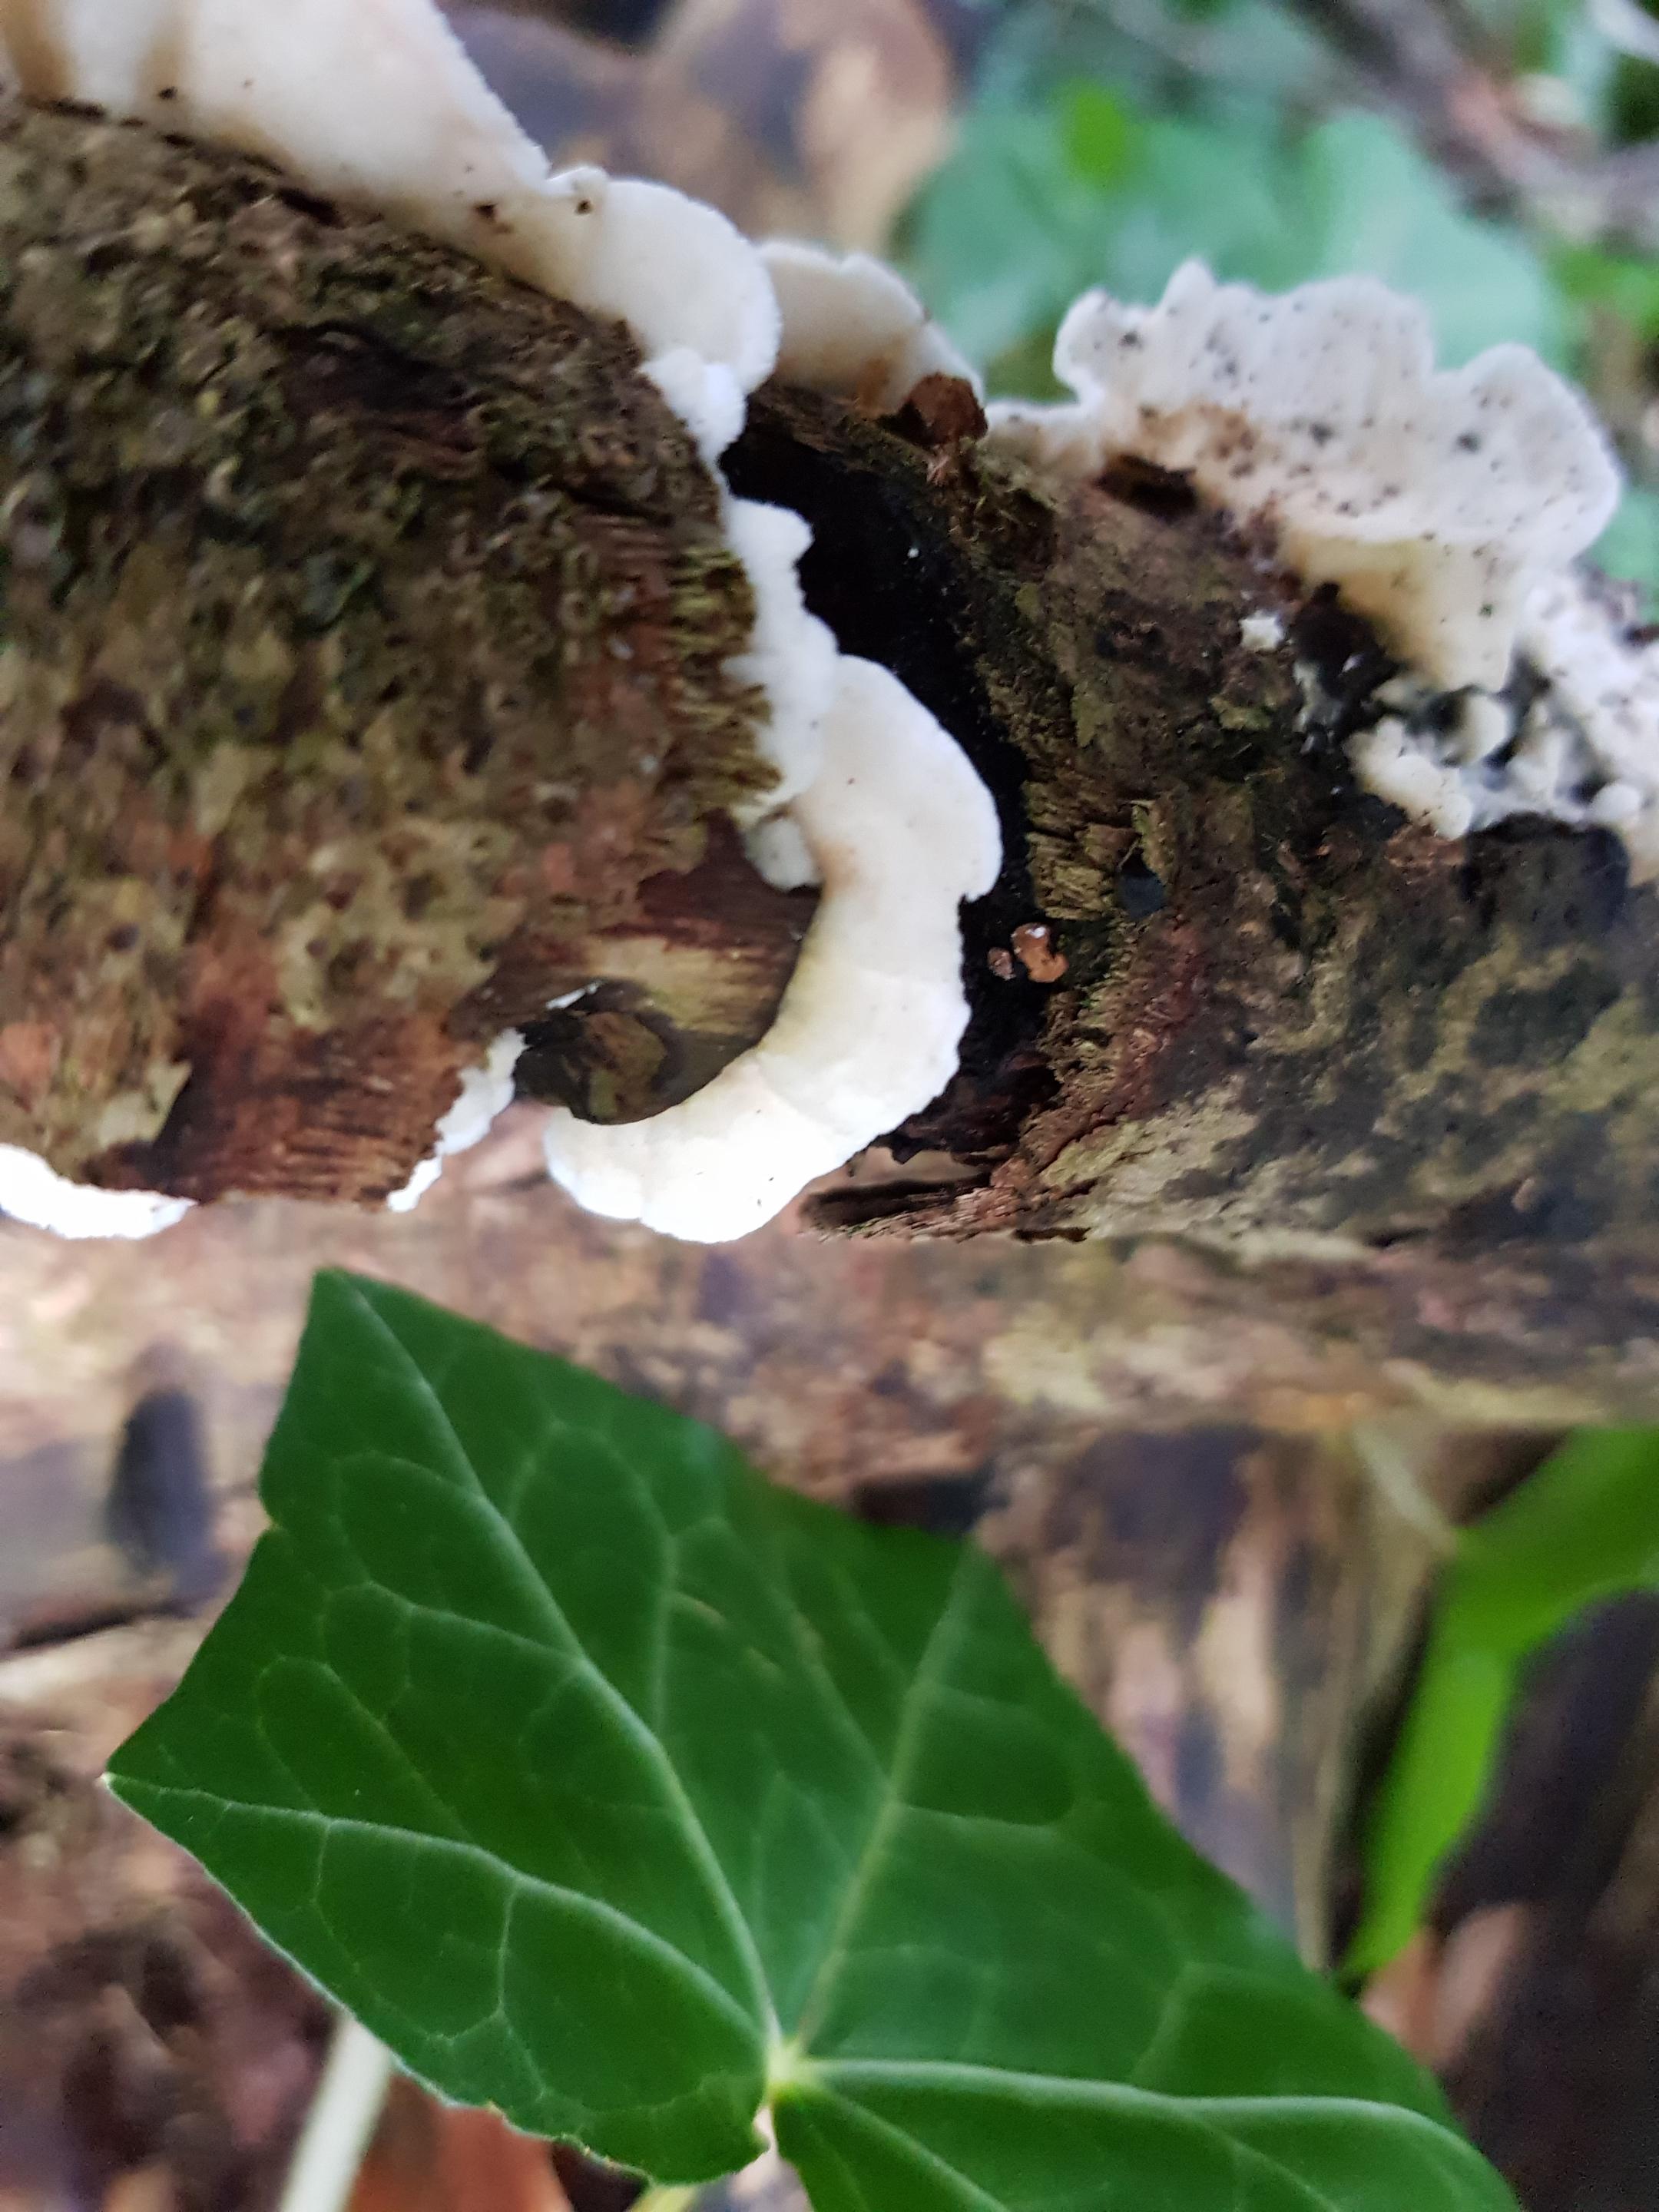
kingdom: Fungi
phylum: Basidiomycota
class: Agaricomycetes
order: Polyporales
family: Irpicaceae
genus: Byssomerulius
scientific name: Byssomerulius corium
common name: læder-åresvamp
